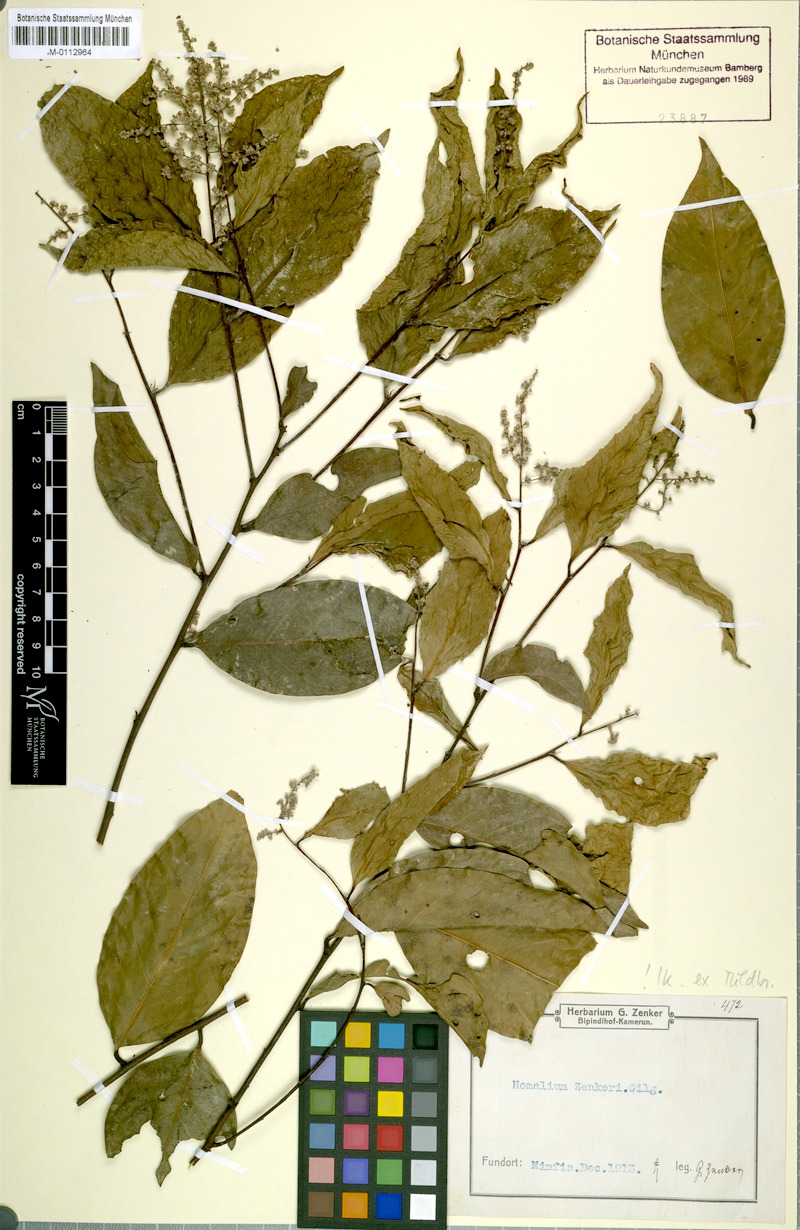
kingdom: Plantae
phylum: Tracheophyta
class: Magnoliopsida
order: Malpighiales
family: Chrysobalanaceae
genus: Afrolicania
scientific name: Afrolicania elaeosperma
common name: Nikko
